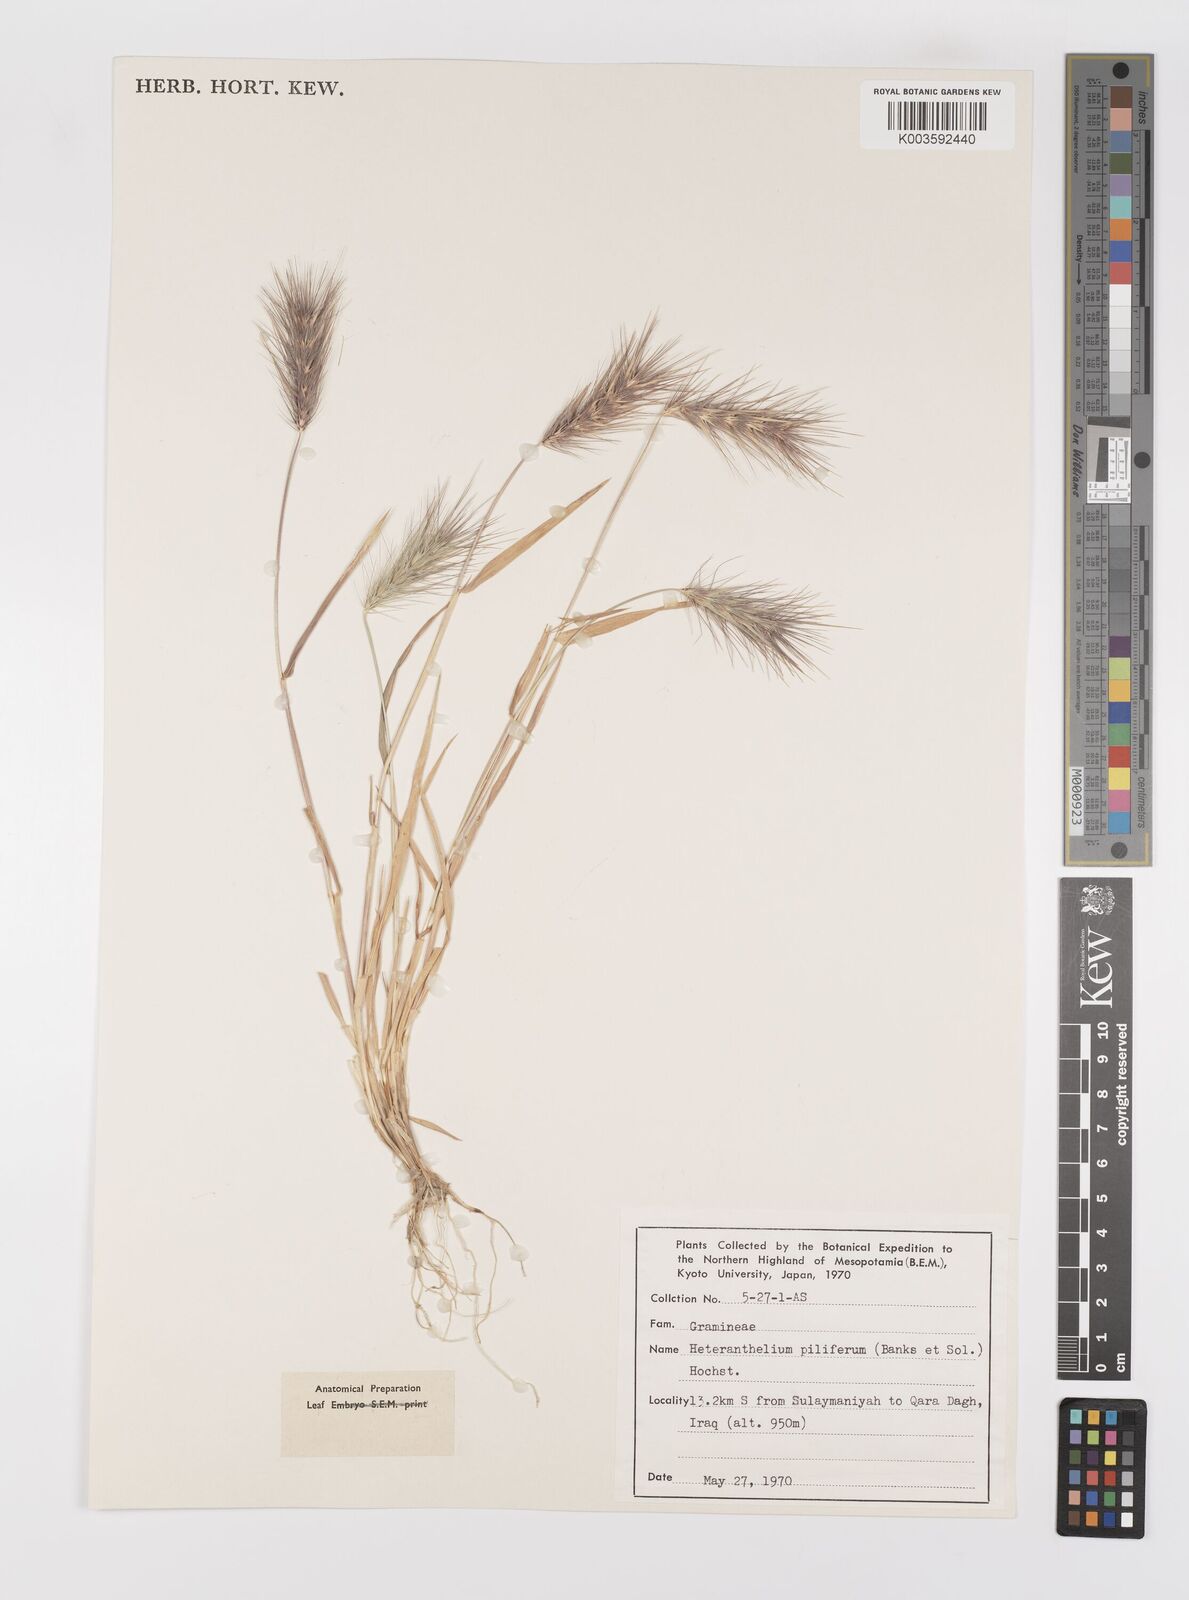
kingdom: Plantae
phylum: Tracheophyta
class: Liliopsida
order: Poales
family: Poaceae
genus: Heteranthelium
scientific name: Heteranthelium piliferum
